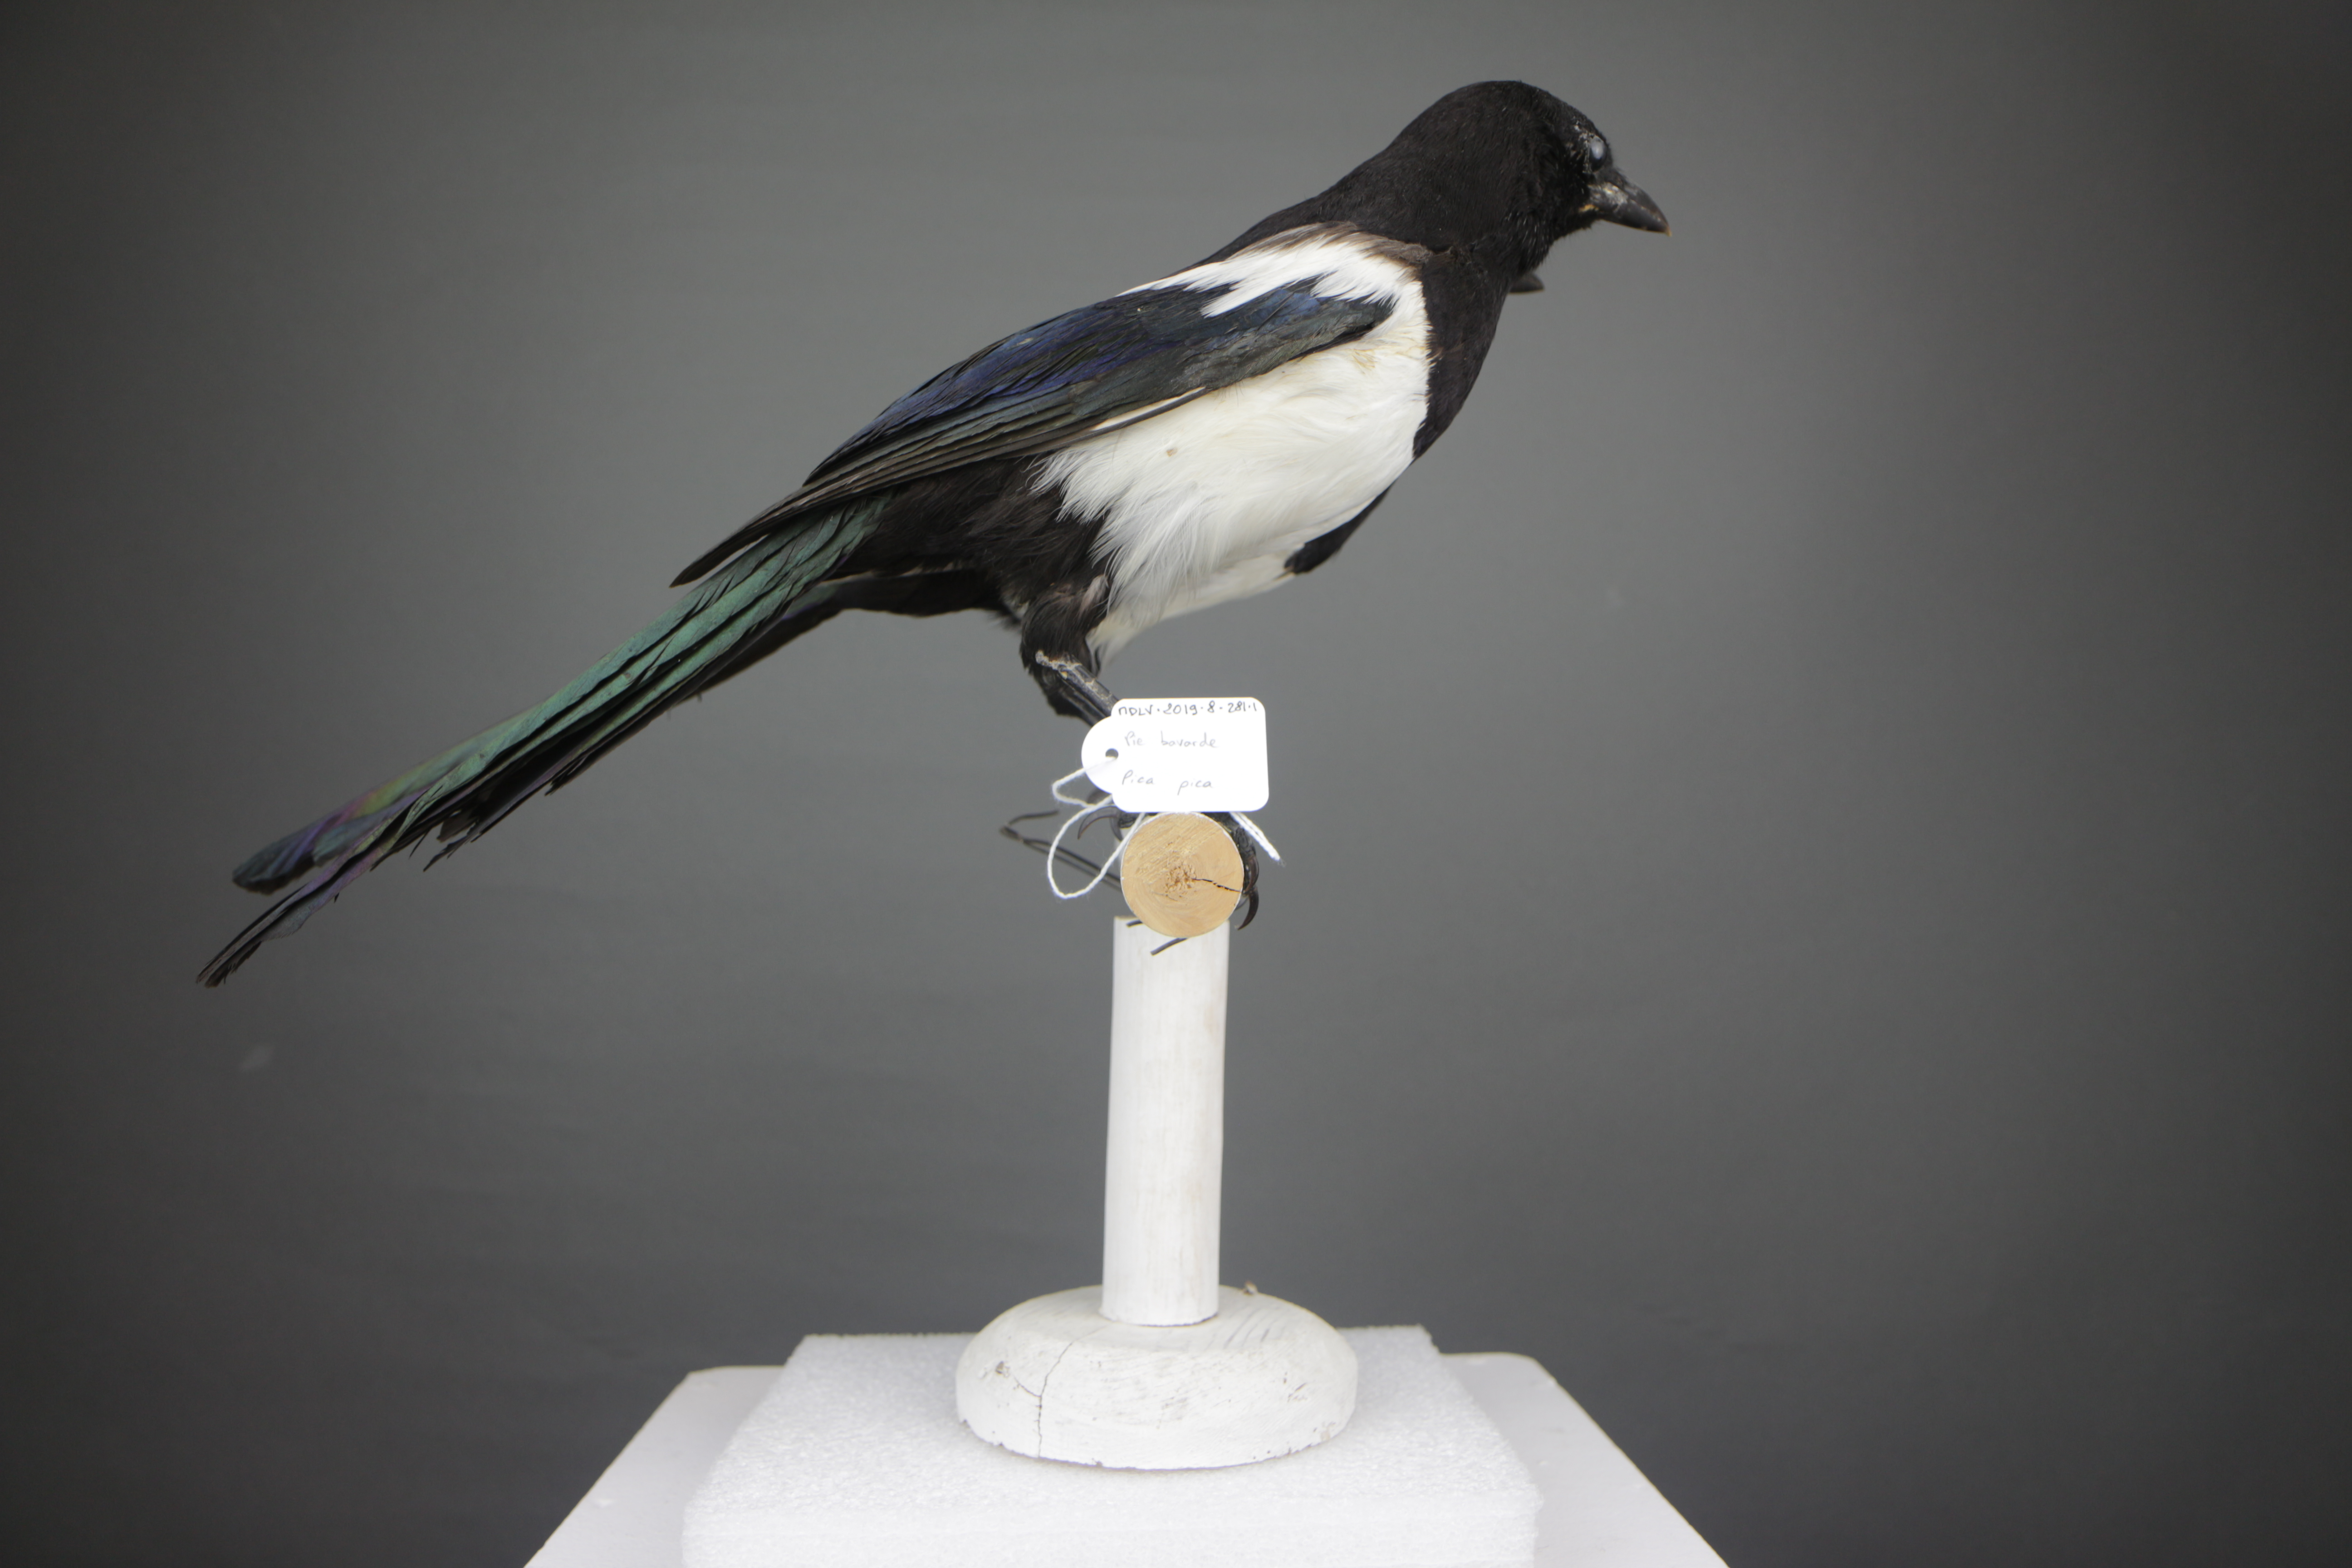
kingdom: Animalia
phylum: Chordata
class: Aves
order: Passeriformes
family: Corvidae
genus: Pica
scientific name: Pica pica
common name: Eurasian magpie
